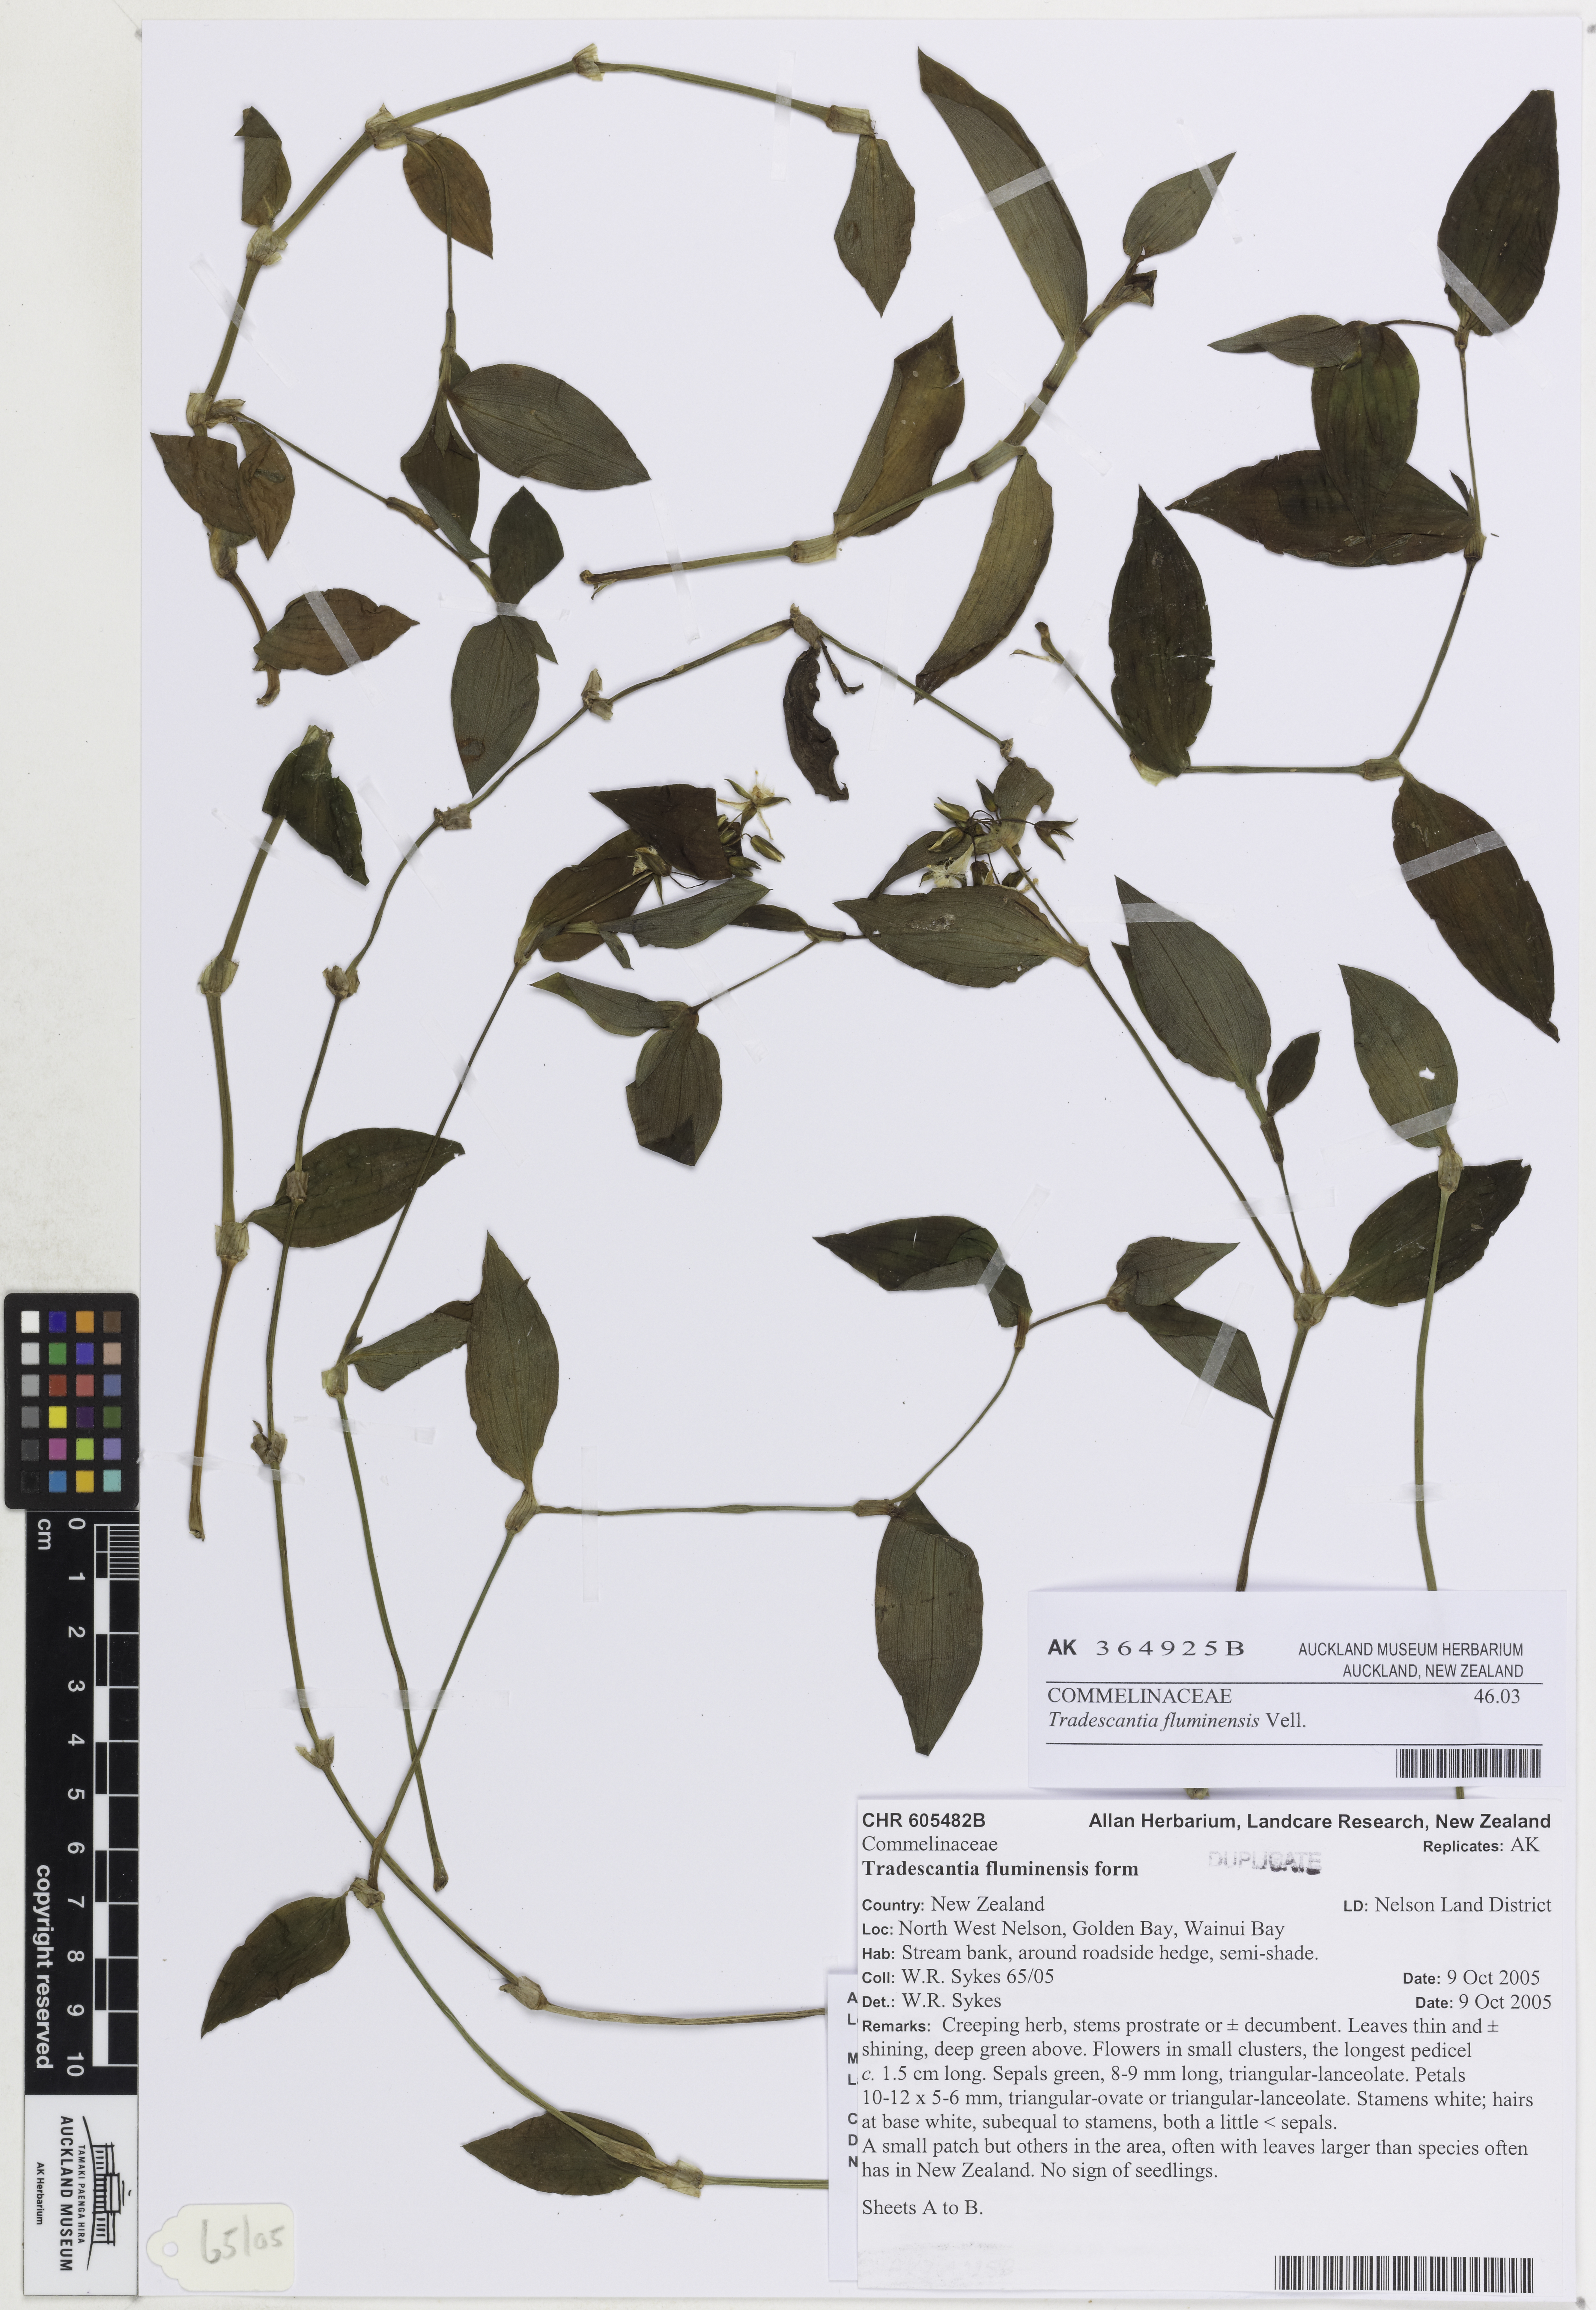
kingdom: Plantae
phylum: Tracheophyta
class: Liliopsida
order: Commelinales
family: Commelinaceae
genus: Tradescantia
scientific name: Tradescantia fluminensis
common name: Wandering-jew
